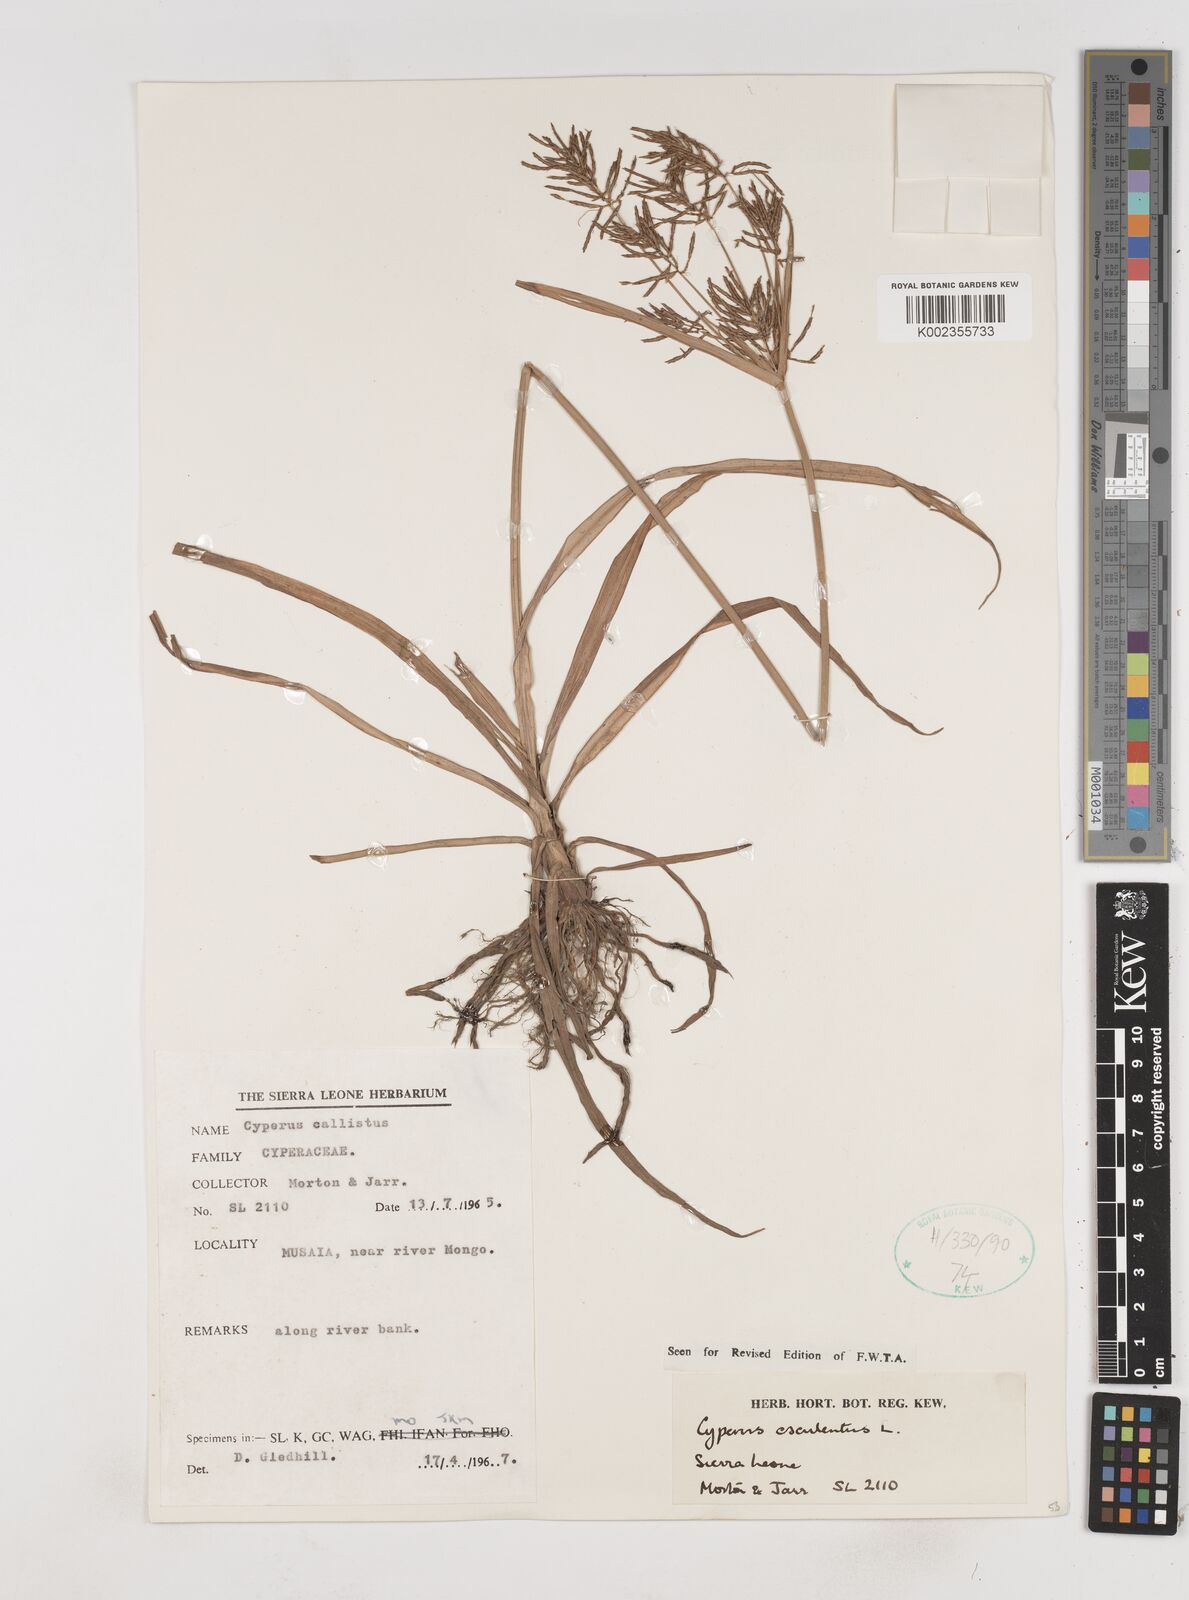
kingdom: Plantae
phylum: Tracheophyta
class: Liliopsida
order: Poales
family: Cyperaceae
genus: Cyperus
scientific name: Cyperus esculentus
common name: Yellow nutsedge
